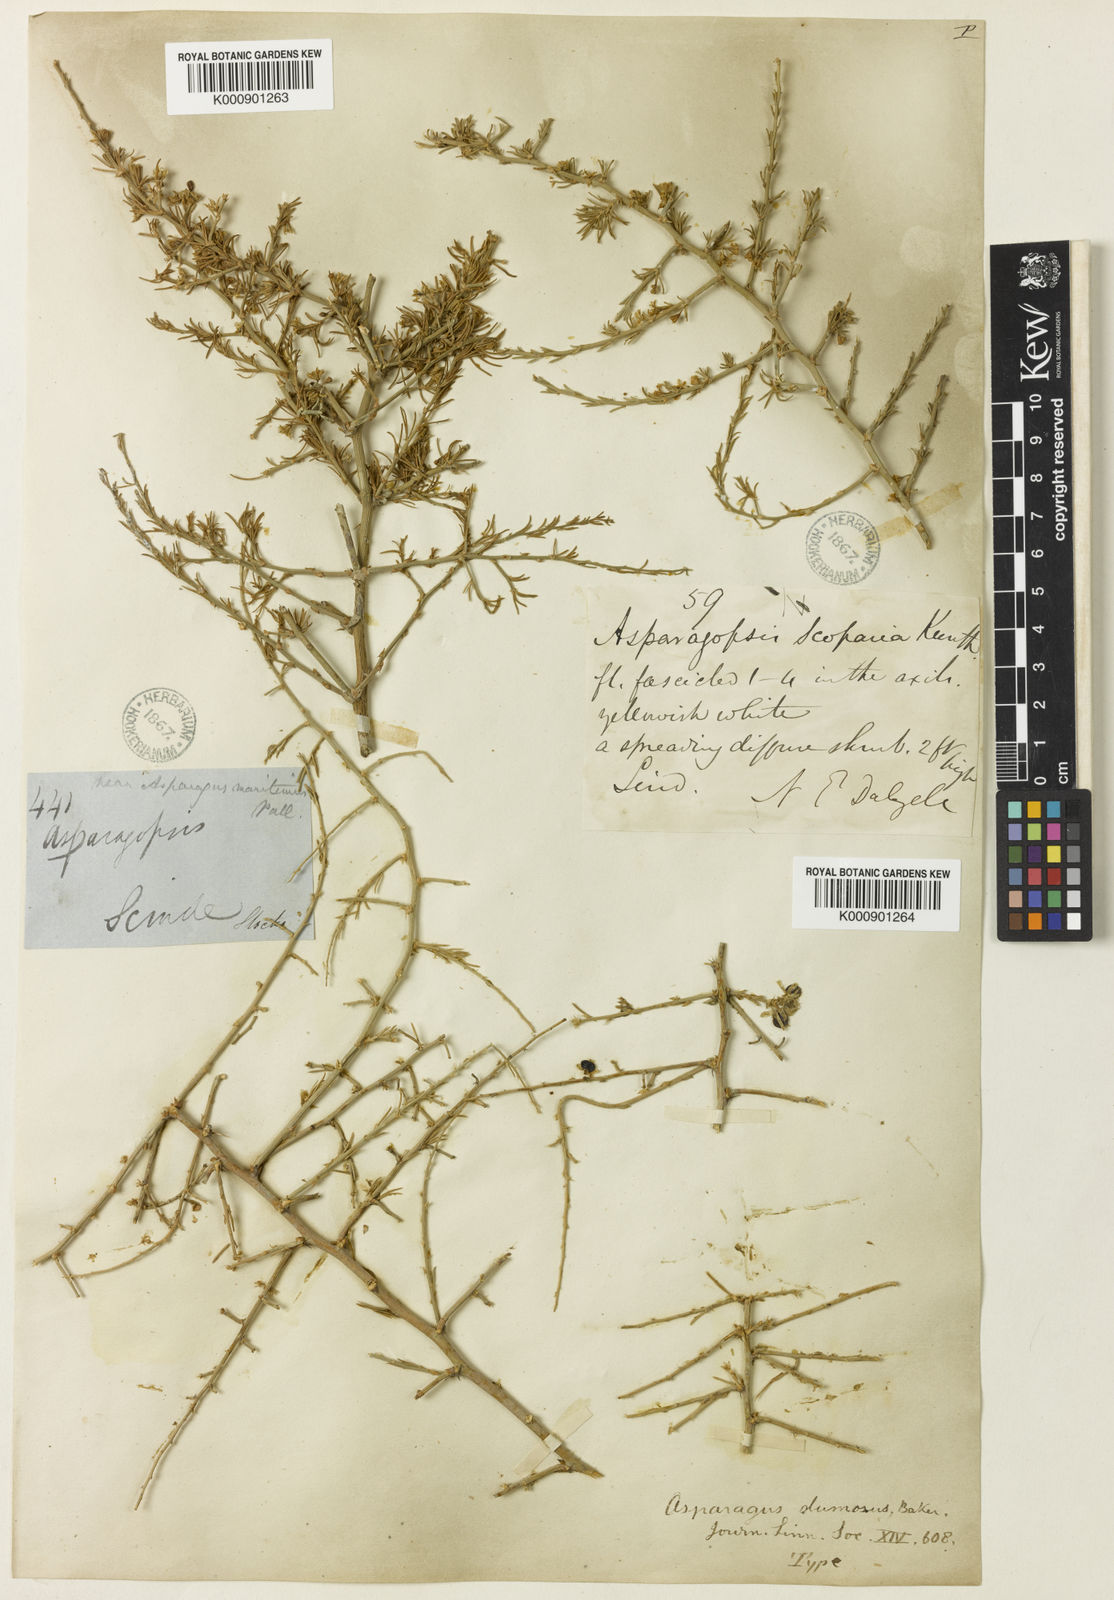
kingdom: Plantae
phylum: Tracheophyta
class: Liliopsida
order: Asparagales
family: Asparagaceae
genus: Asparagus
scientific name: Asparagus dumosus
